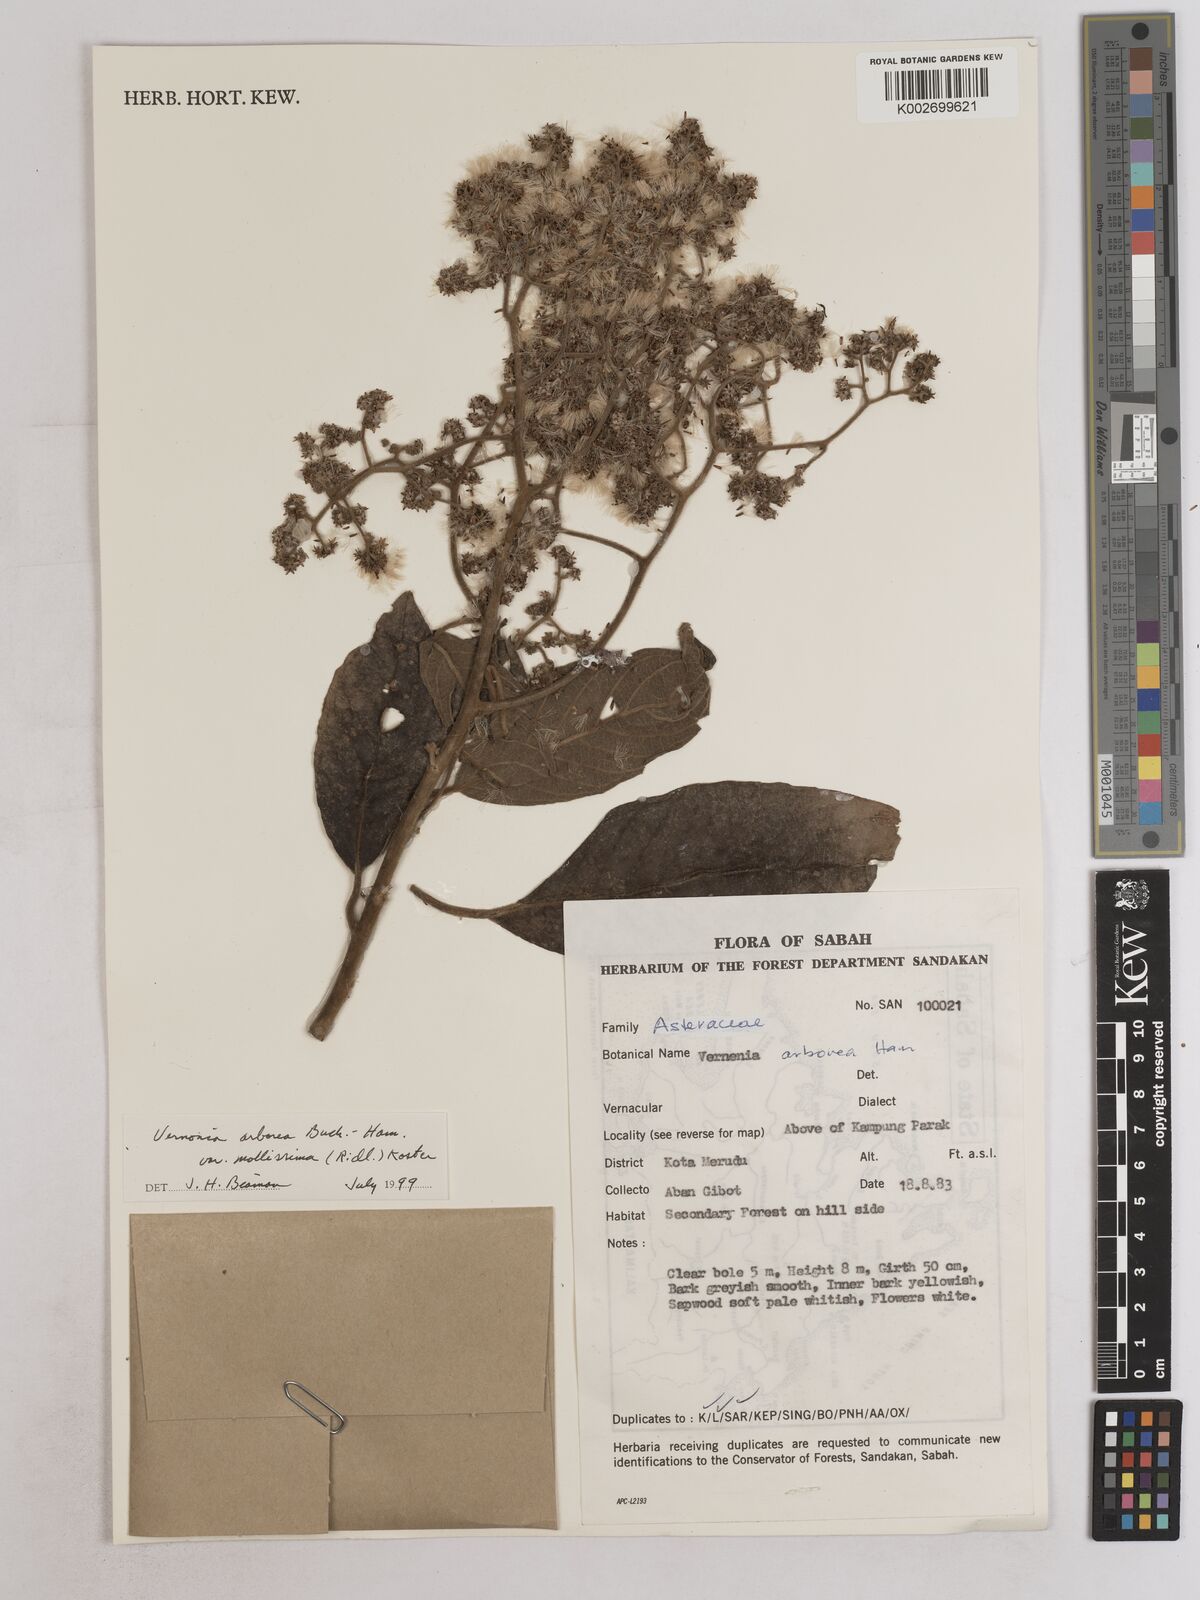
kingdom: Plantae
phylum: Tracheophyta
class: Magnoliopsida
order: Asterales
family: Asteraceae
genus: Strobocalyx
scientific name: Strobocalyx arborea
